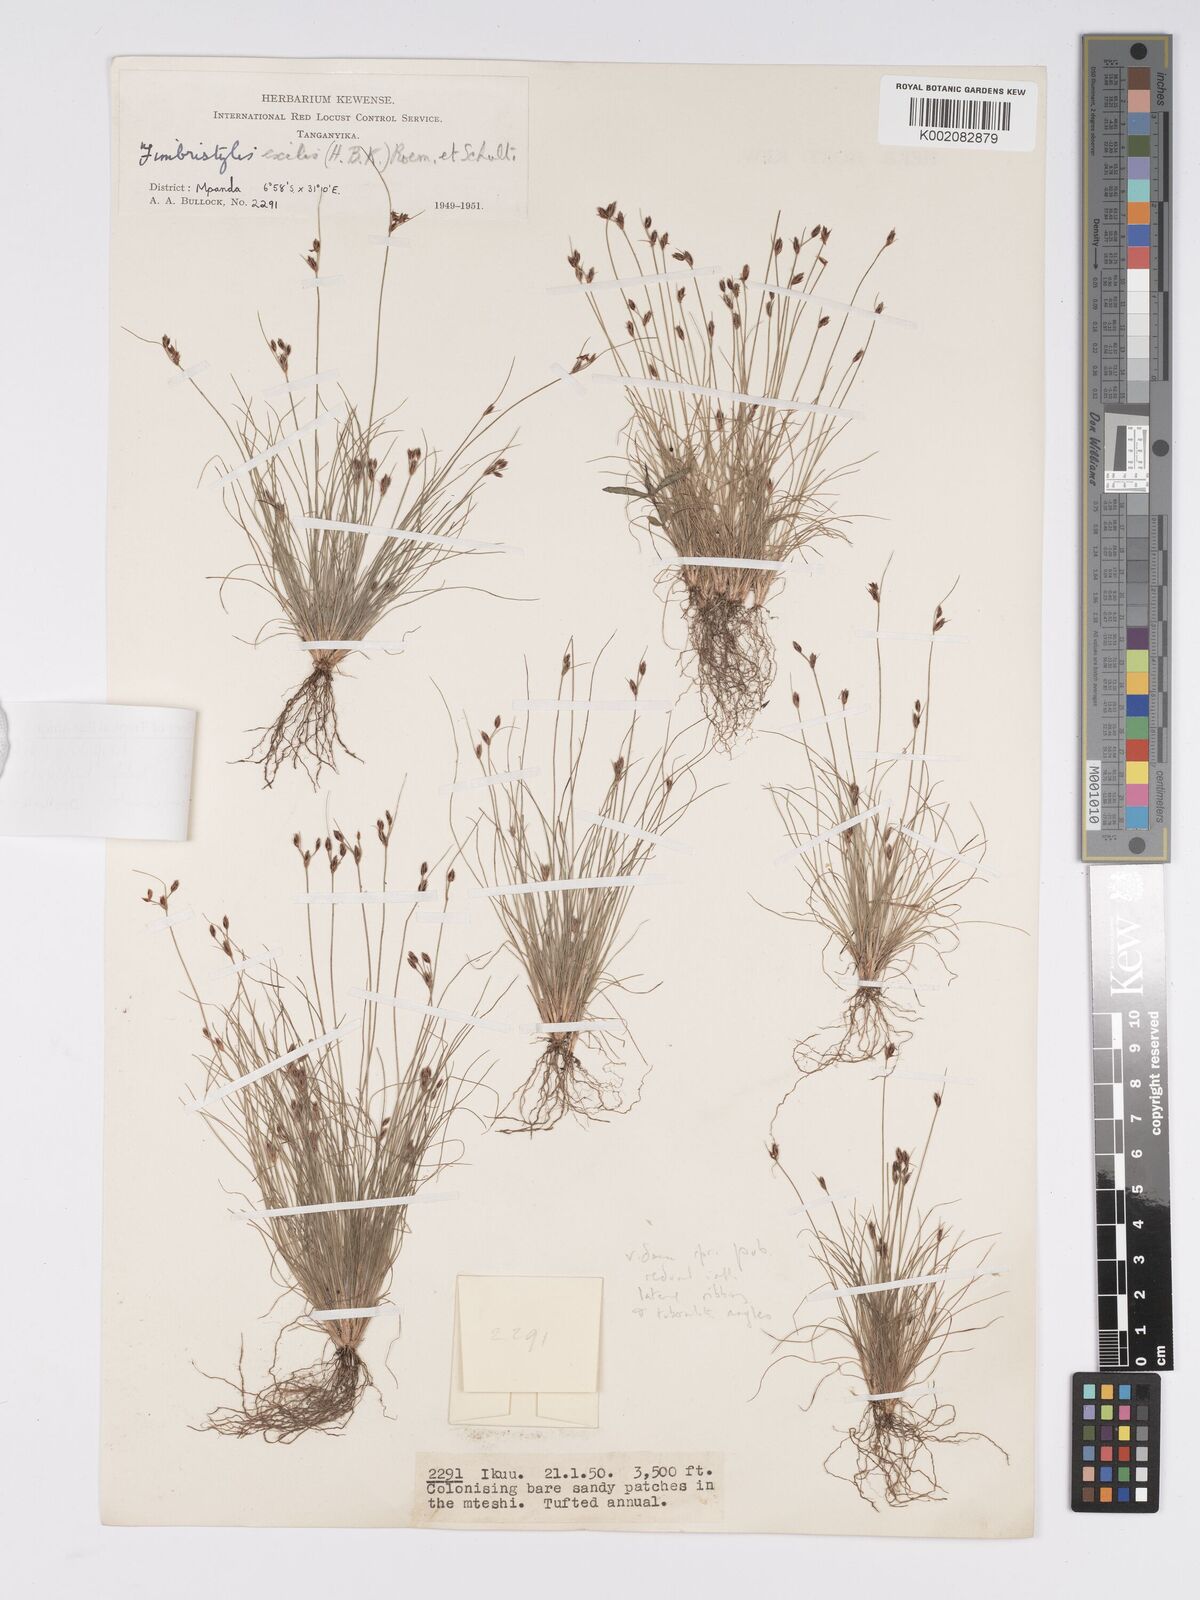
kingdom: Plantae
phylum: Tracheophyta
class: Liliopsida
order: Poales
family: Cyperaceae
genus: Bulbostylis
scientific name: Bulbostylis hispidula
